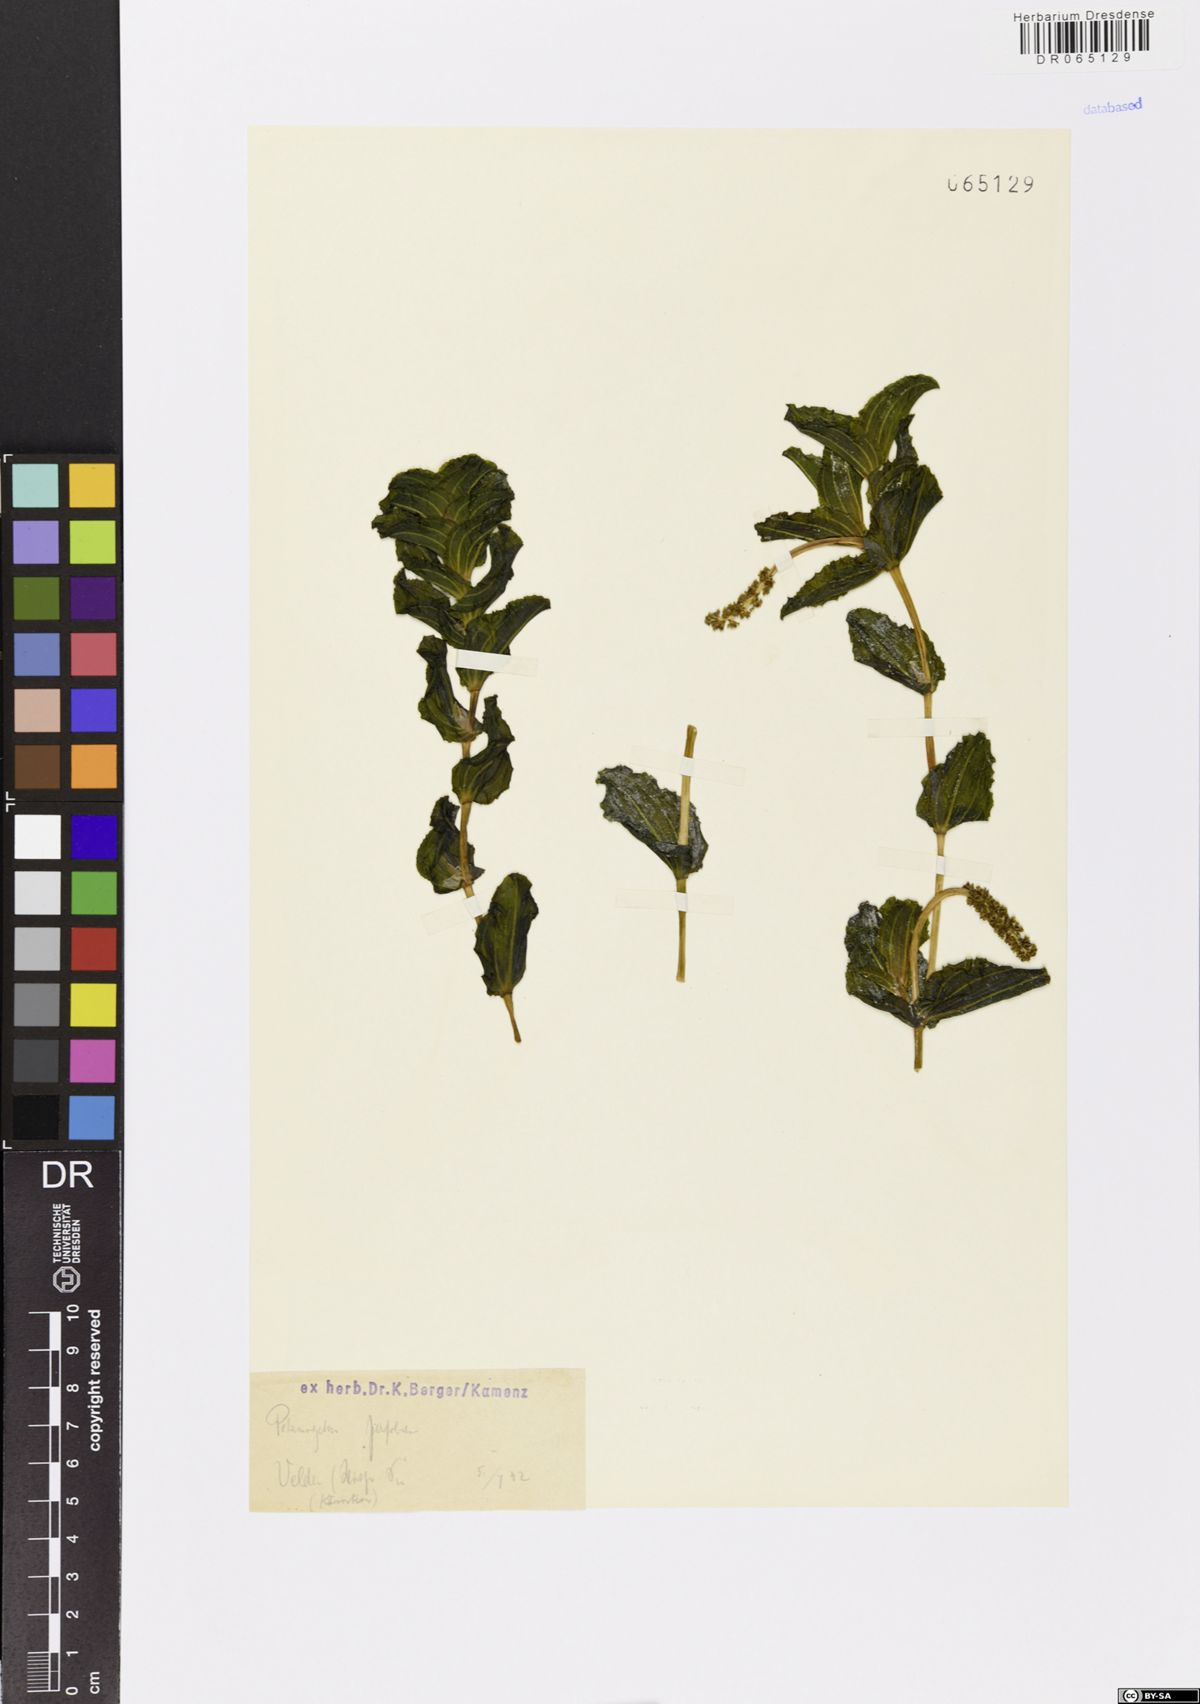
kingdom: Plantae
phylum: Tracheophyta
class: Liliopsida
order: Alismatales
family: Potamogetonaceae
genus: Potamogeton
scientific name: Potamogeton perfoliatus
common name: Perfoliate pondweed
